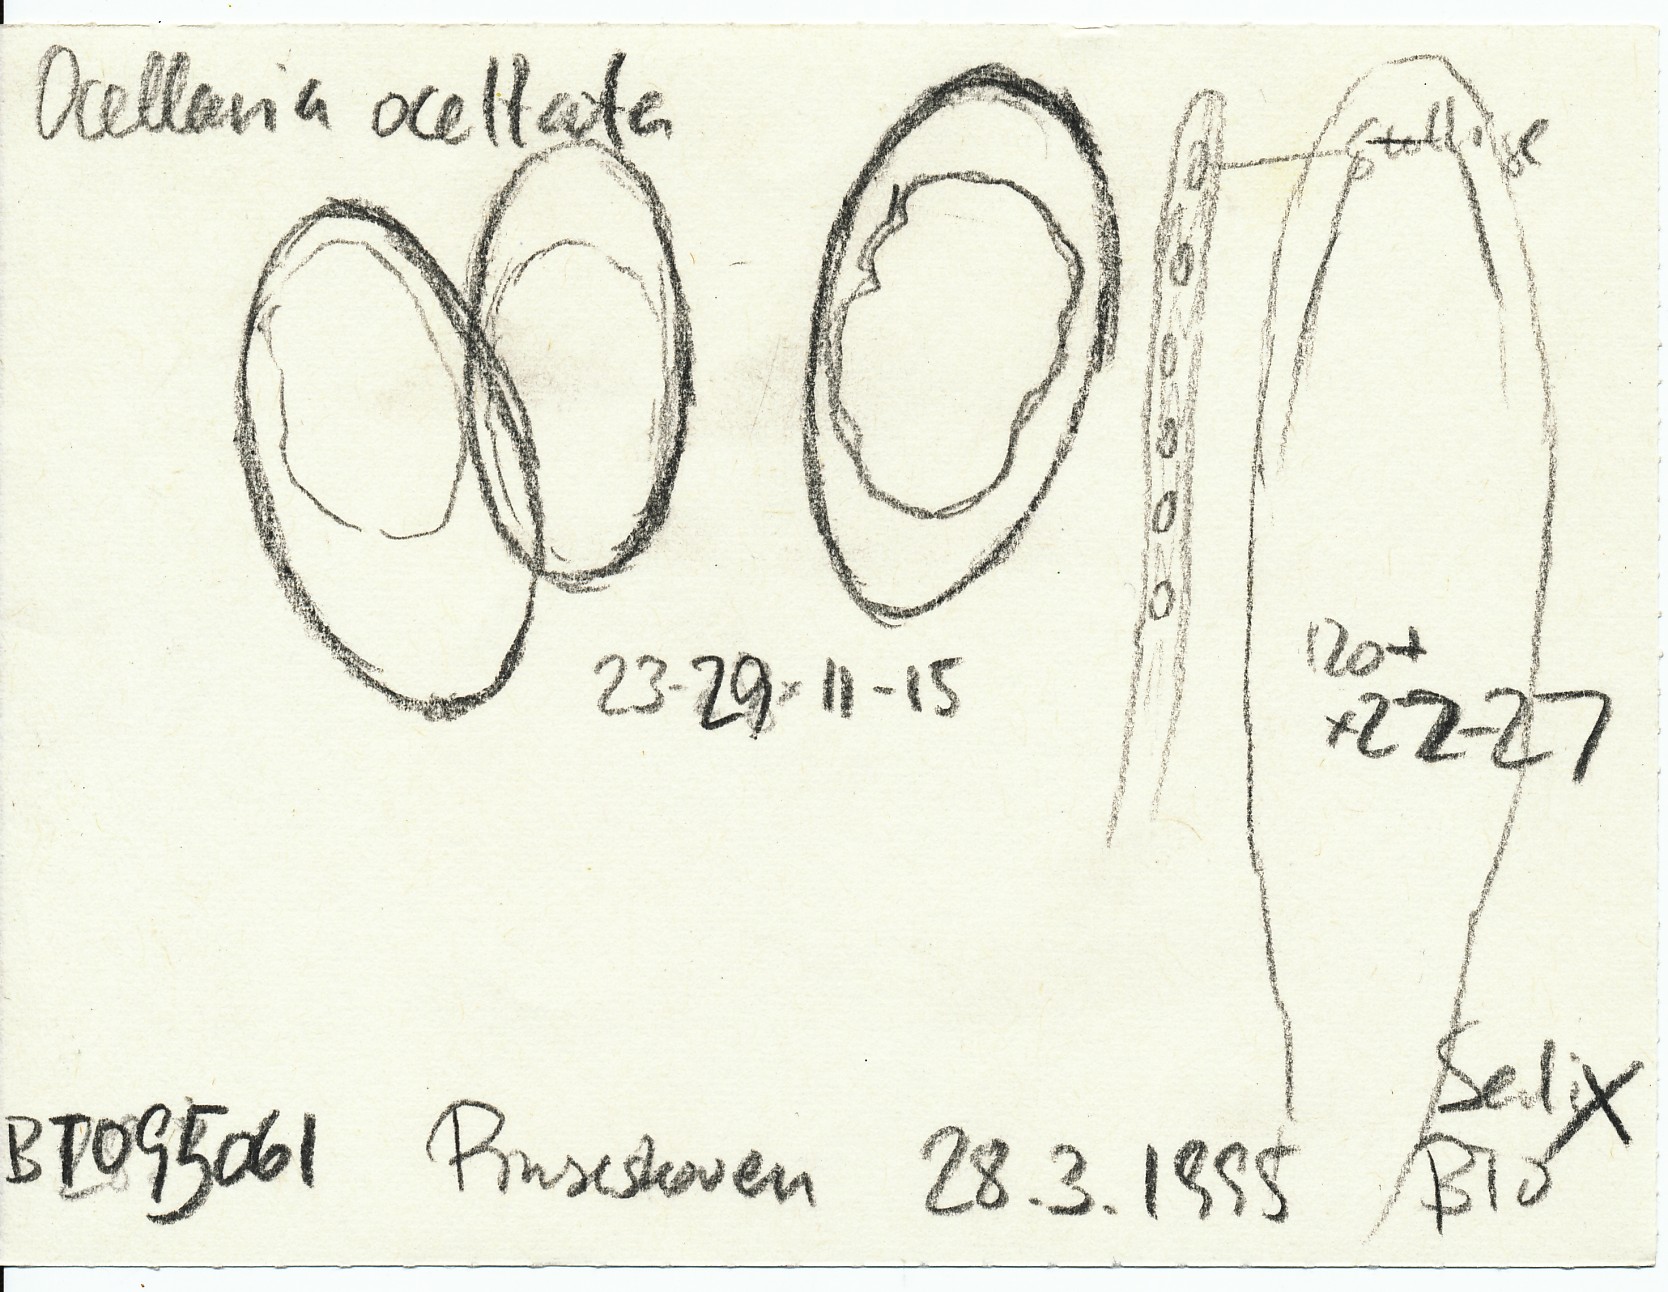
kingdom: Fungi
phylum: Ascomycota
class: Leotiomycetes
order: Helotiales
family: Dermateaceae
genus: Pezicula
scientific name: Pezicula ocellata
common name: tandet klyngeskive
